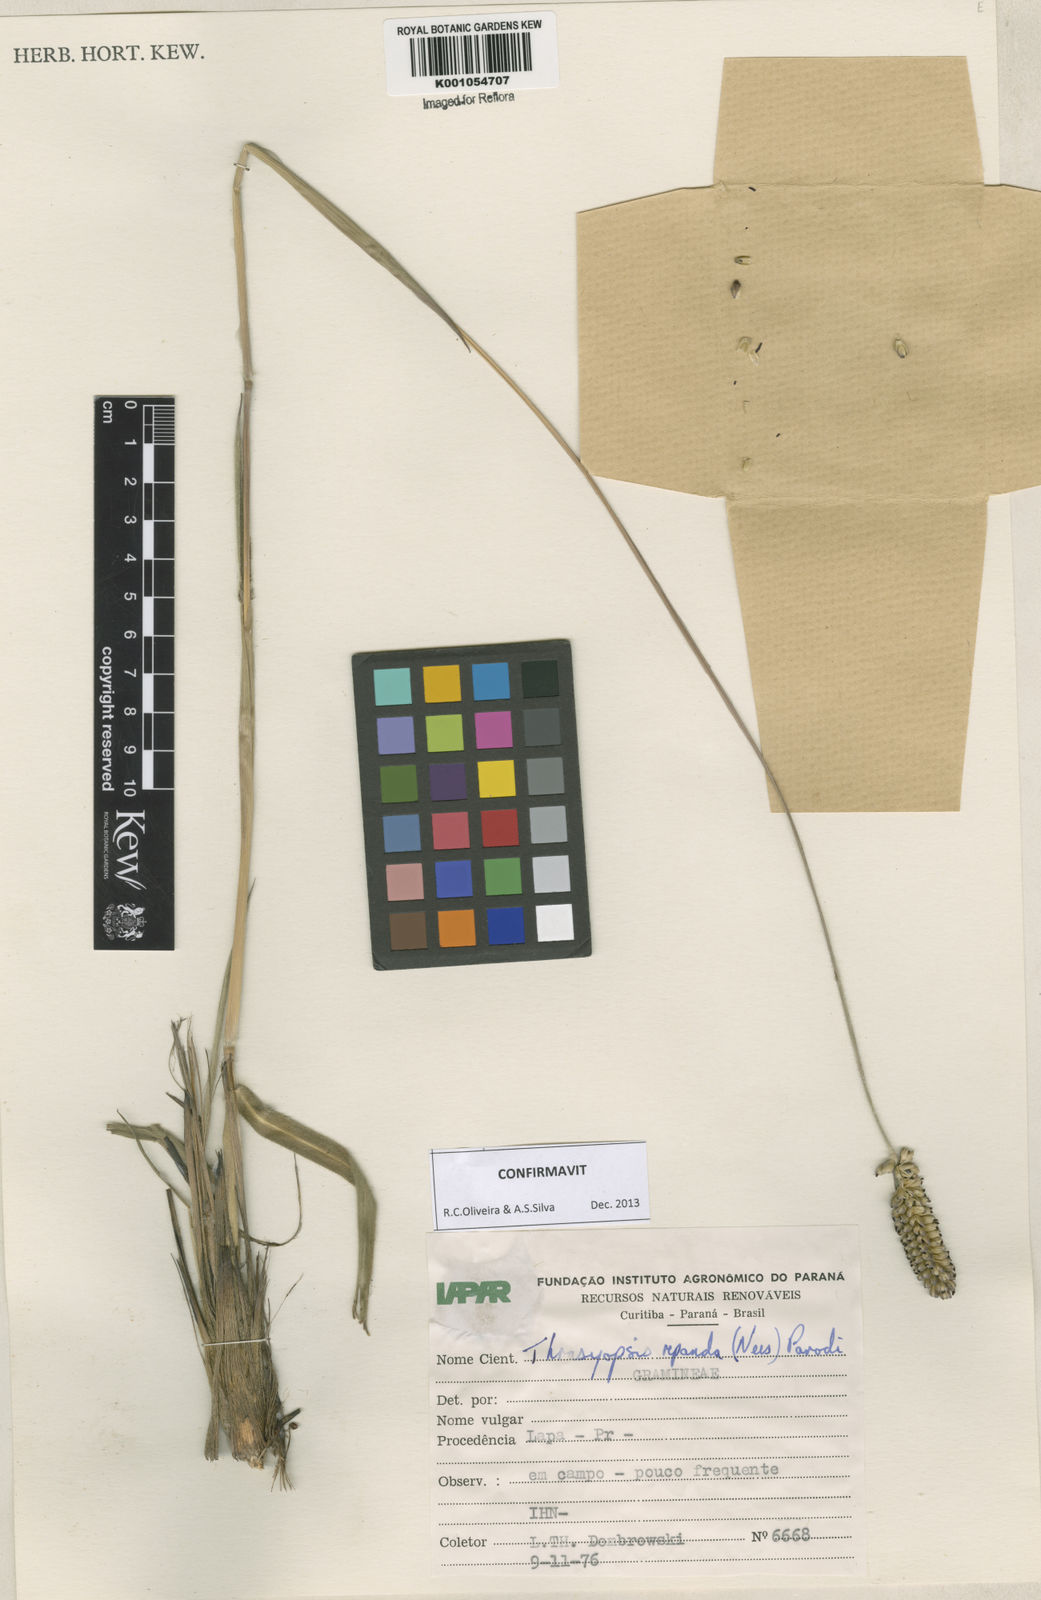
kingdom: Plantae
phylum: Tracheophyta
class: Liliopsida
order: Poales
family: Poaceae
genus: Paspalum
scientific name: Paspalum repandum
